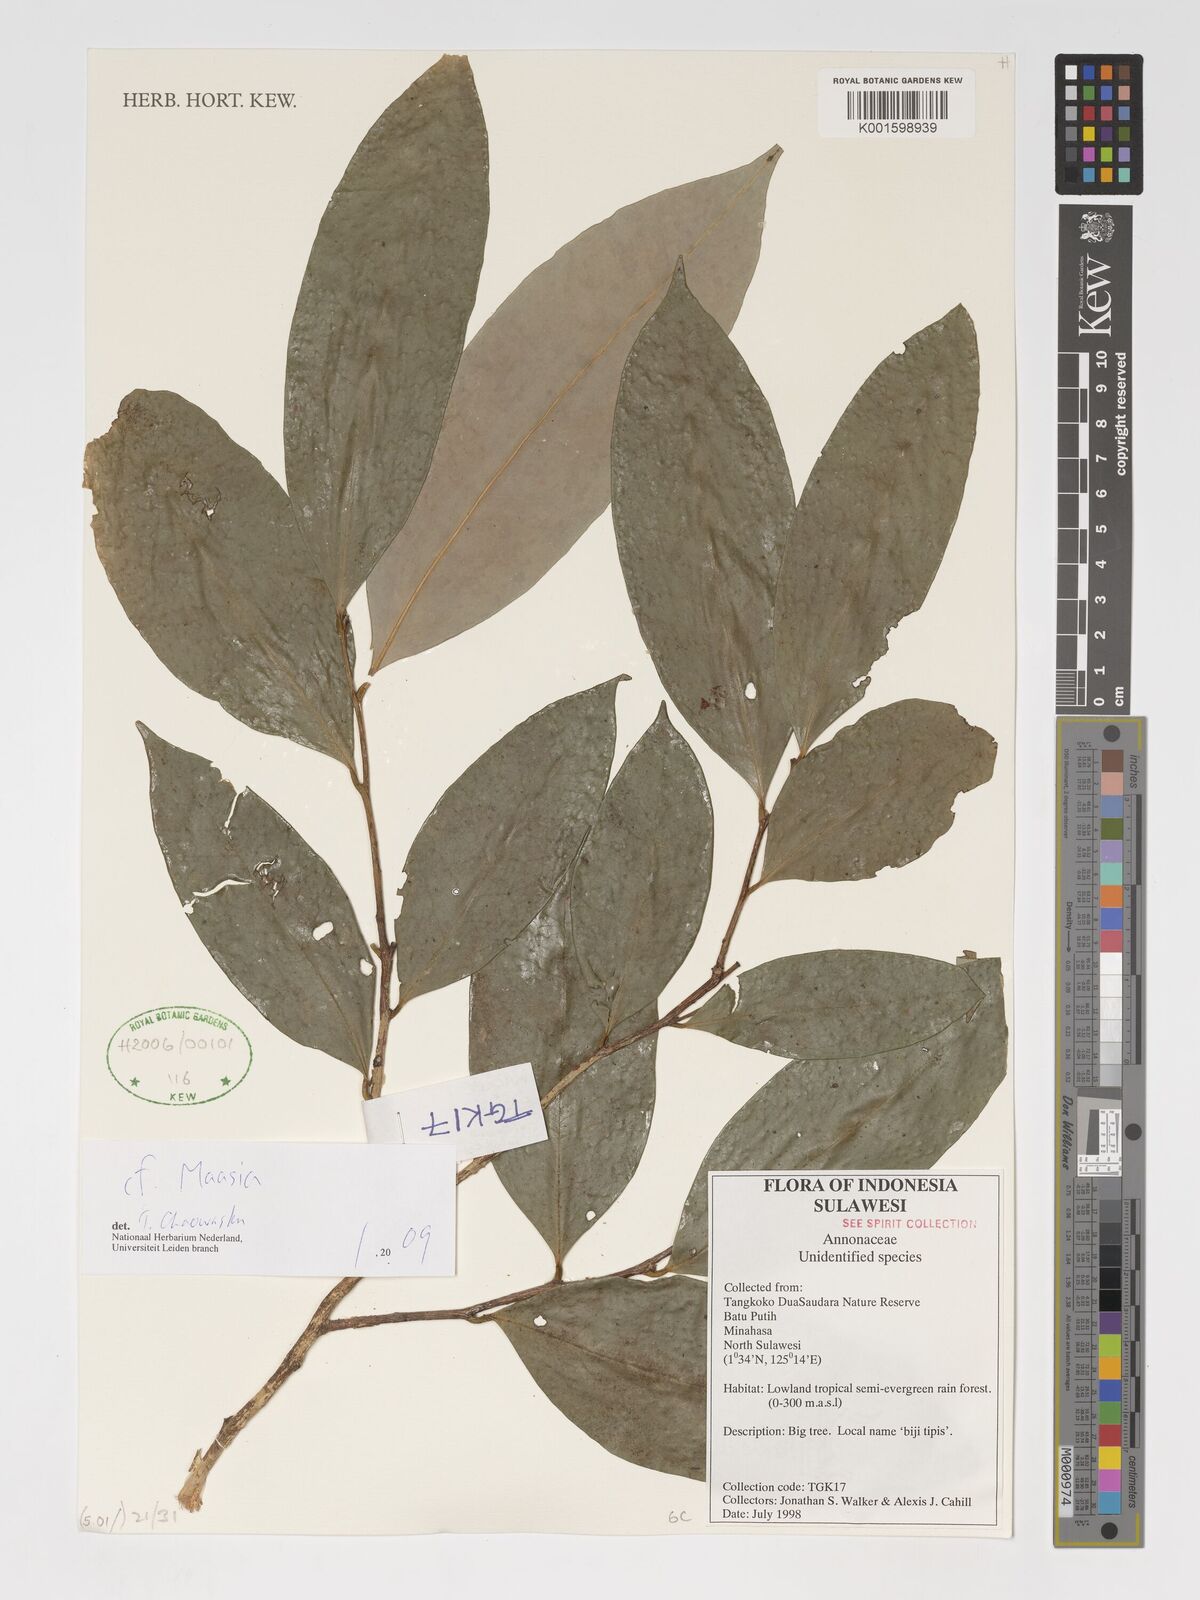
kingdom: Plantae
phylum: Tracheophyta
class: Magnoliopsida
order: Magnoliales
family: Annonaceae
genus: Maasia
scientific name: Maasia
